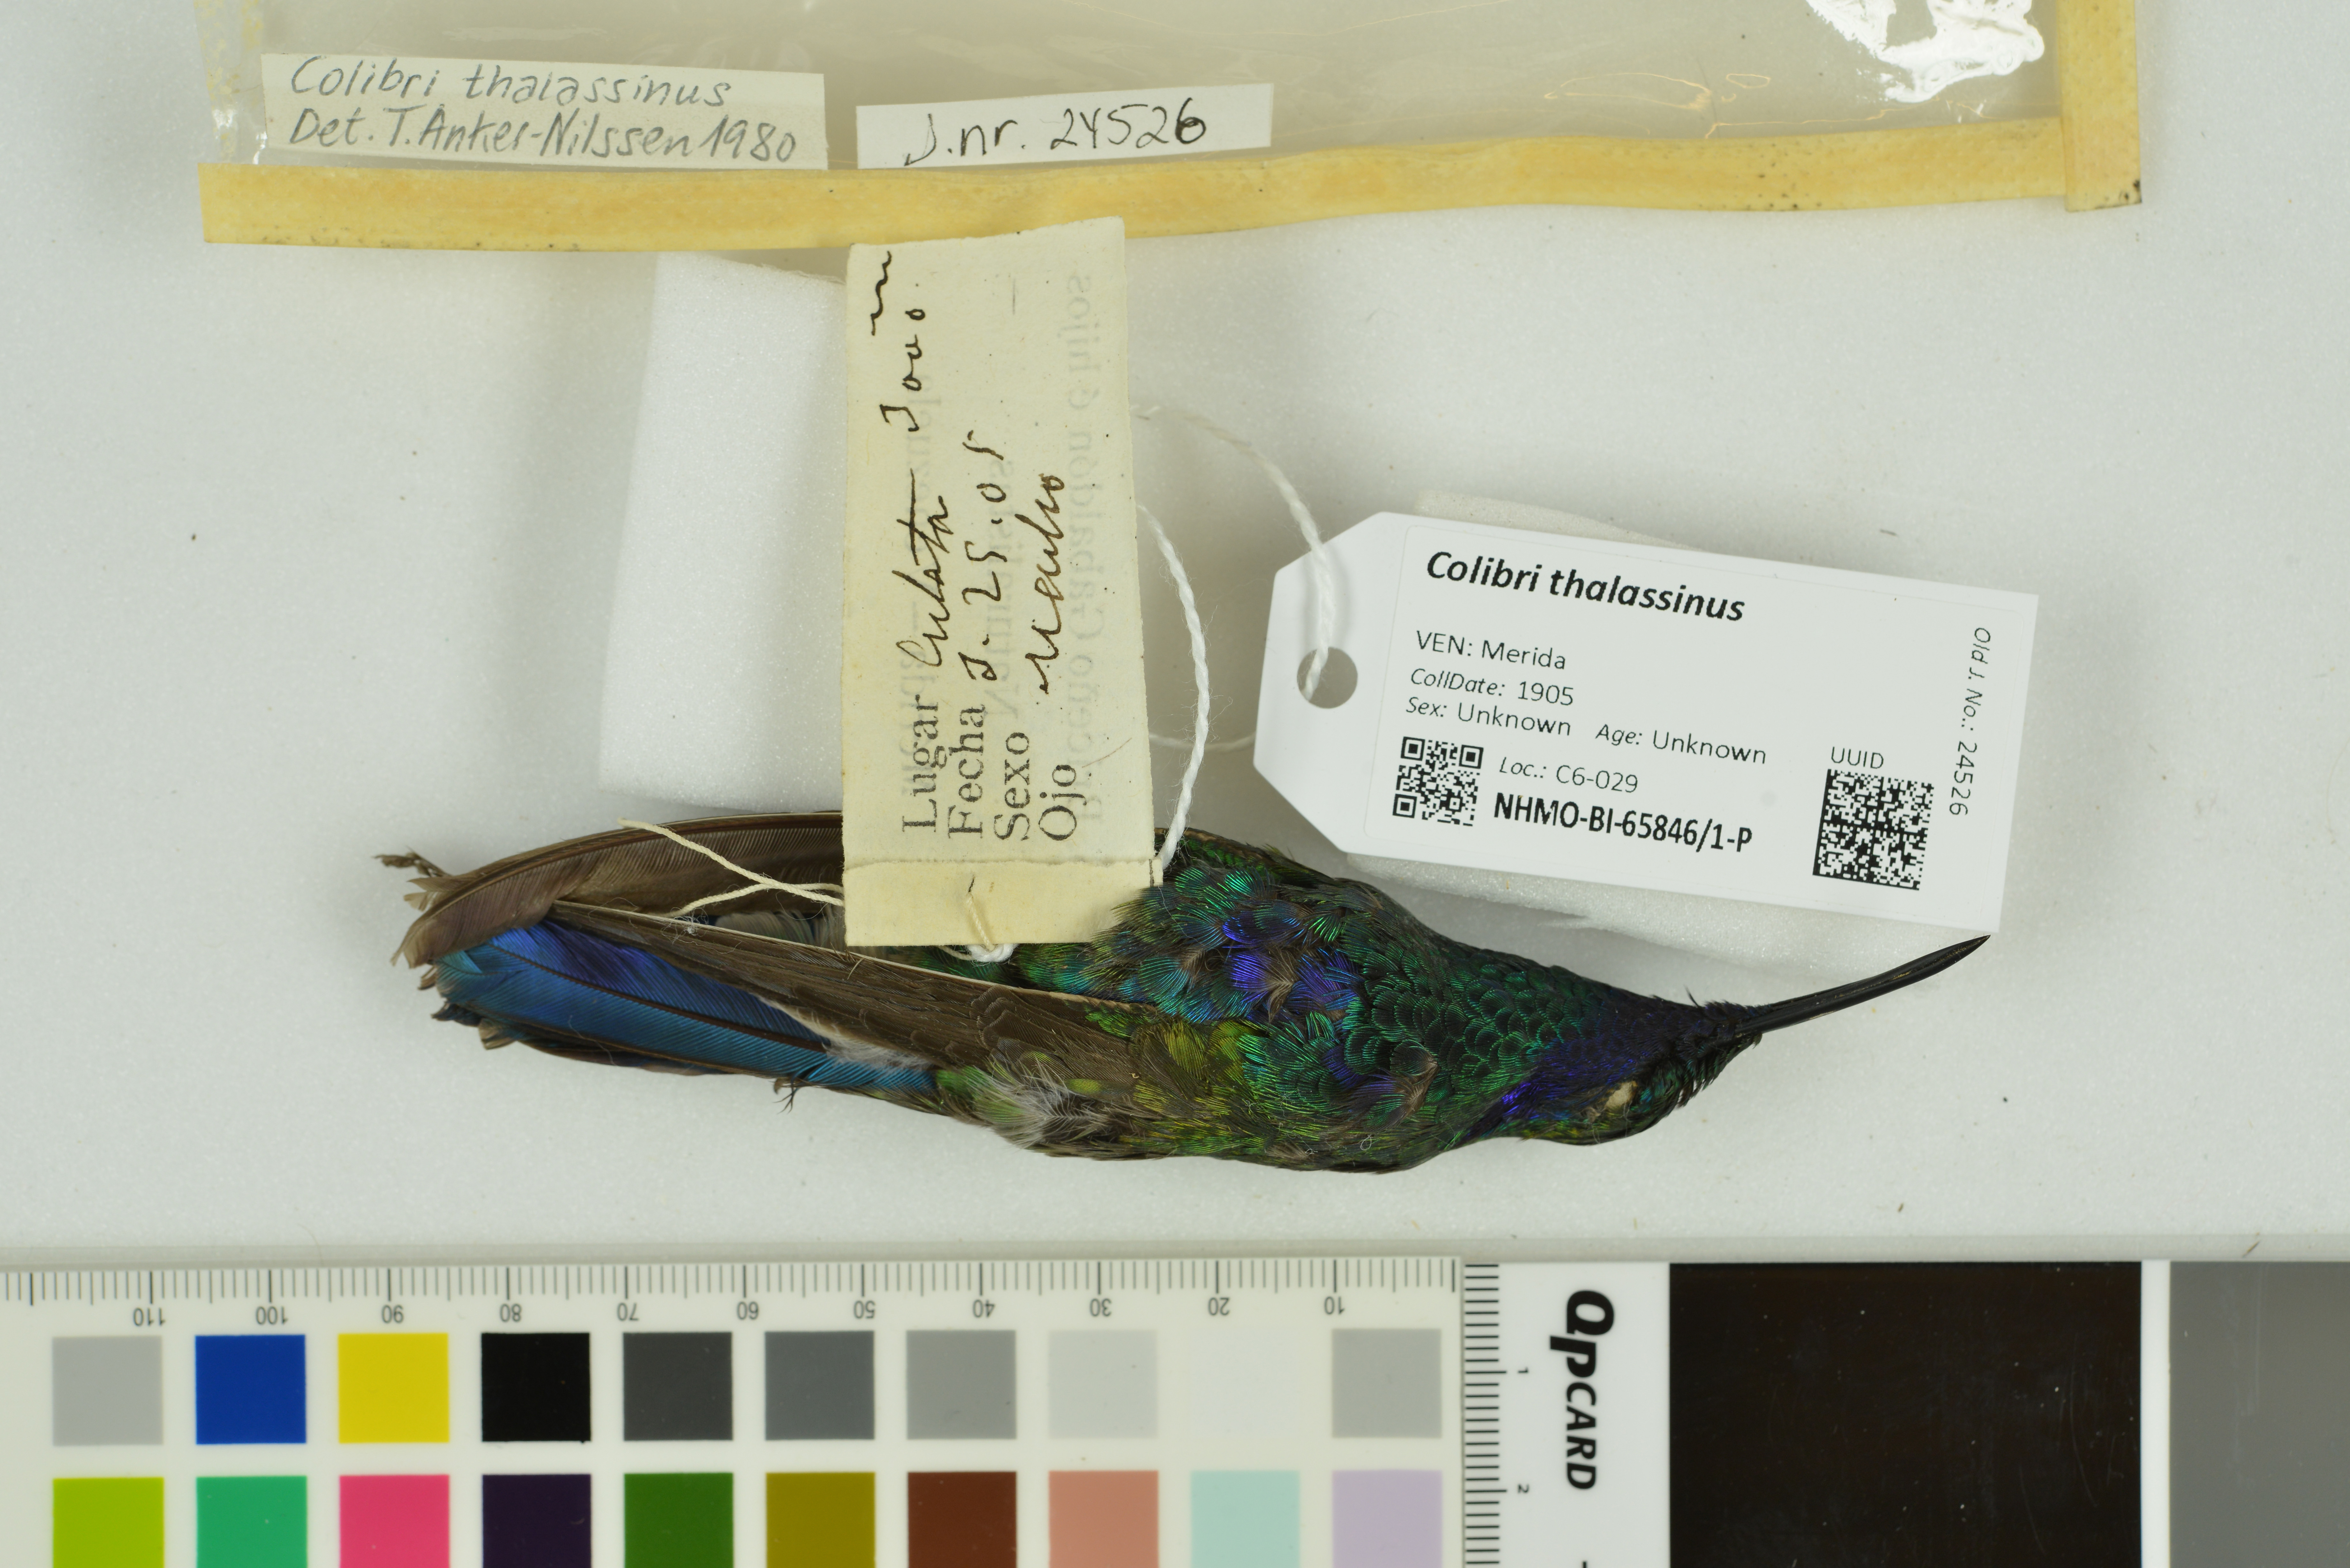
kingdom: Animalia
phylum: Chordata
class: Aves
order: Apodiformes
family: Trochilidae
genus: Colibri
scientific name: Colibri thalassinus
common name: Green violetear
